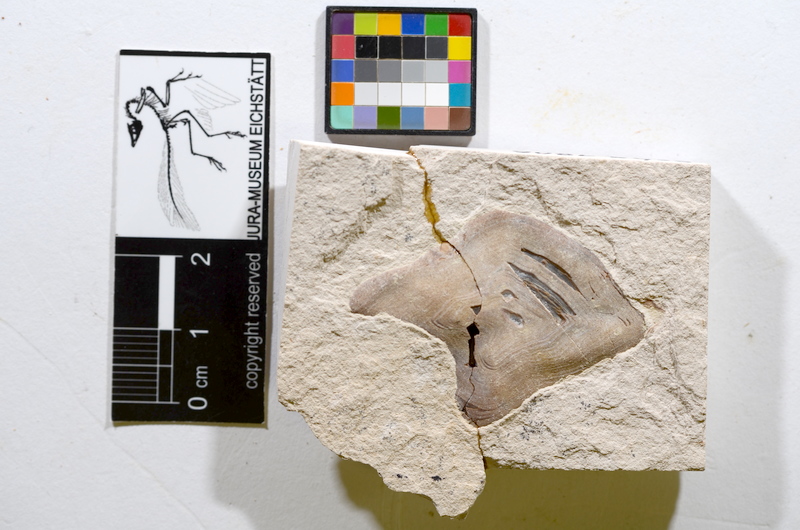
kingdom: Animalia
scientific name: Animalia
